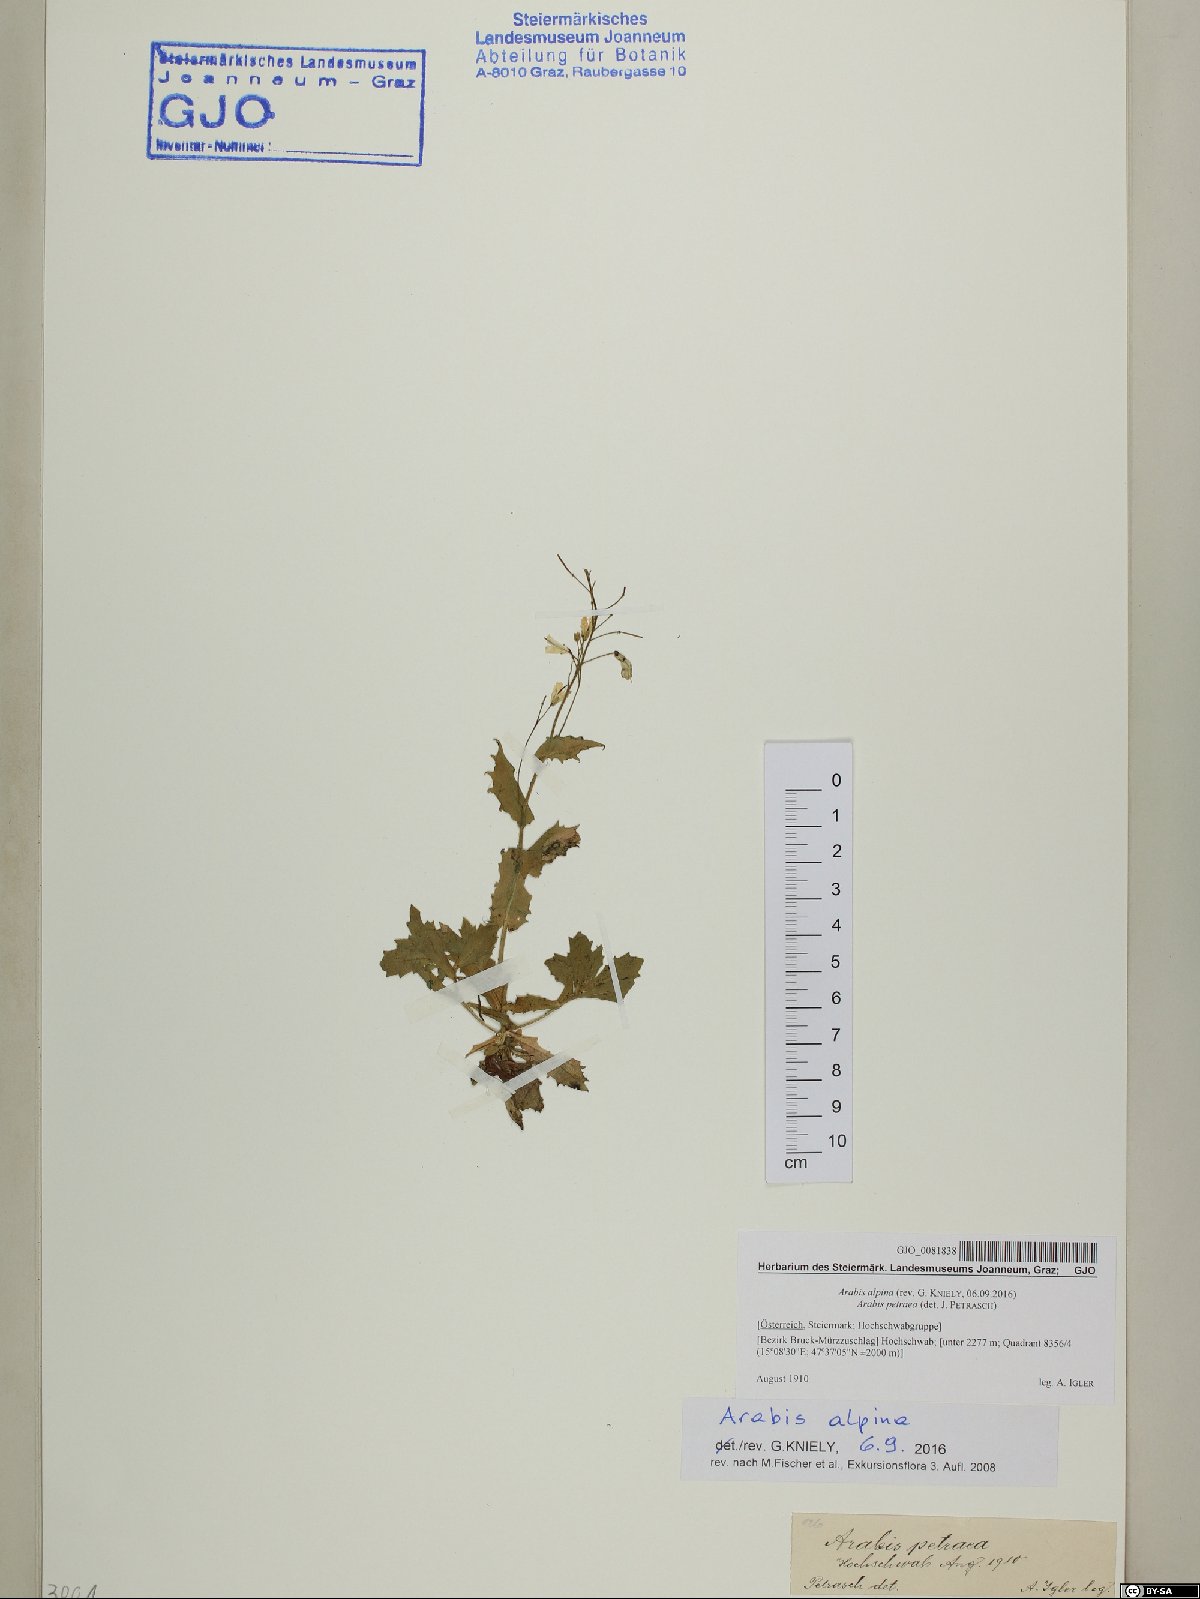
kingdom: Plantae
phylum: Tracheophyta
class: Magnoliopsida
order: Brassicales
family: Brassicaceae
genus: Arabis
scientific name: Arabis alpina
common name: Alpine rock-cress
